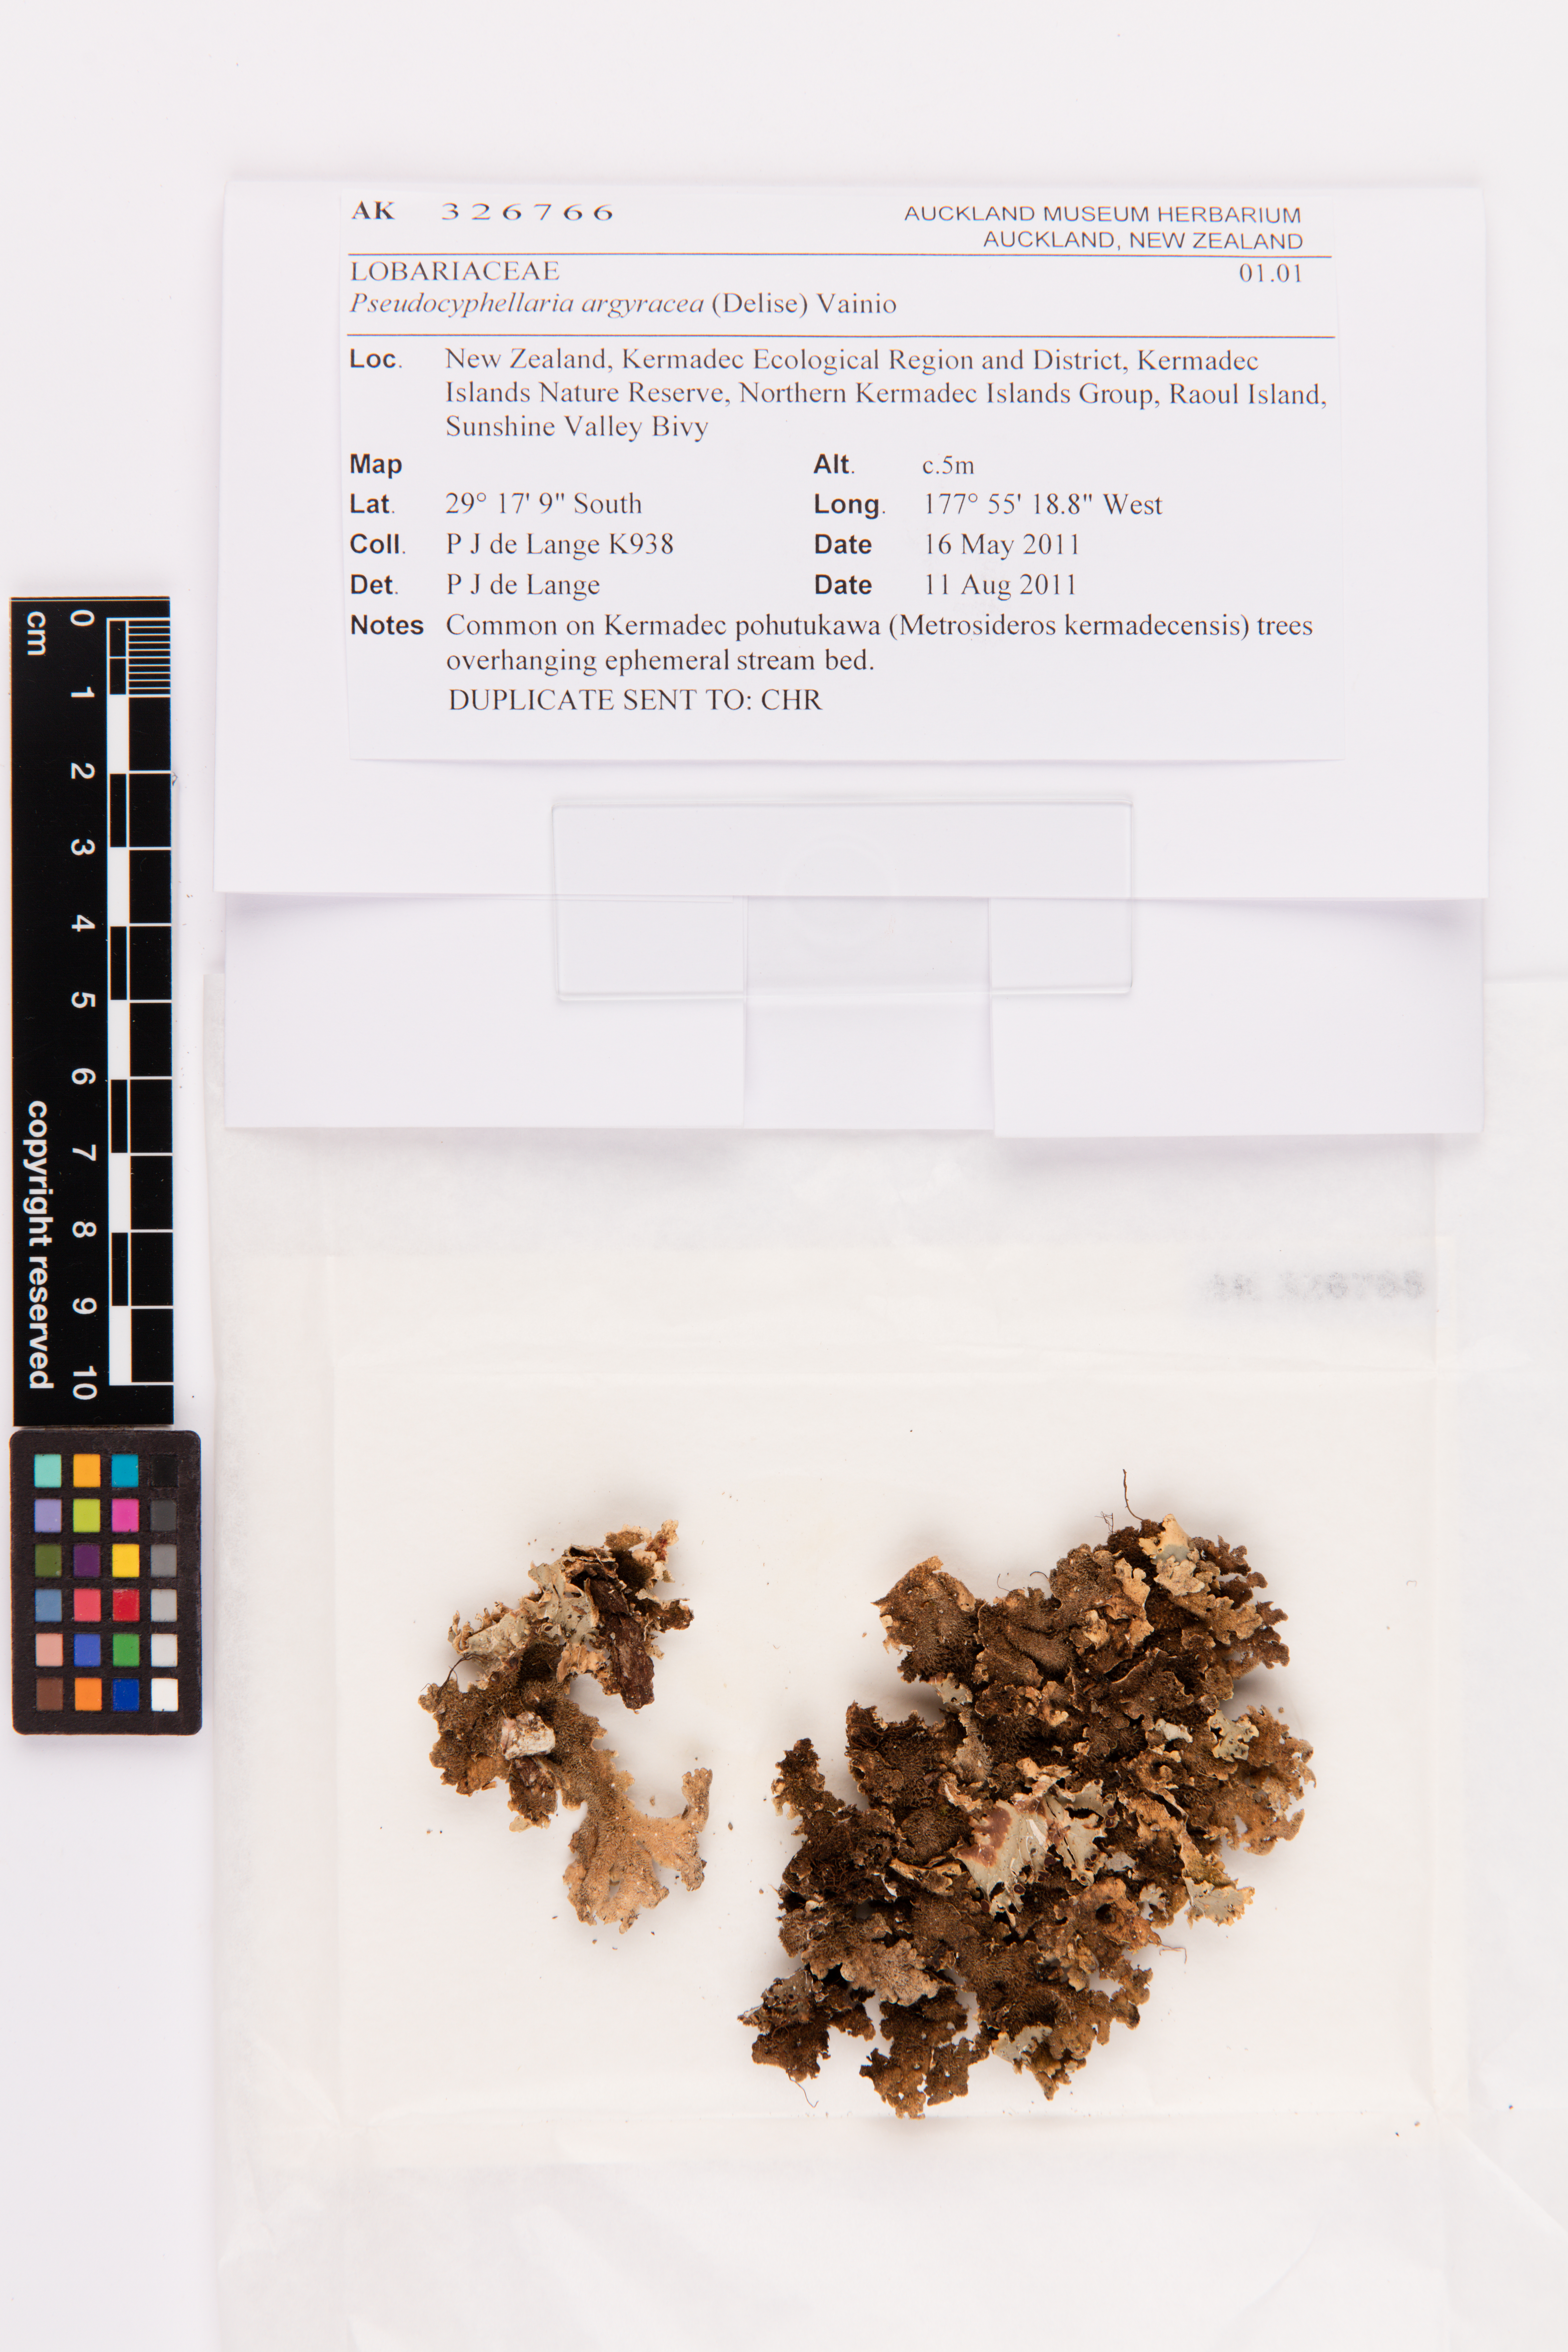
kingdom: Fungi
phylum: Ascomycota
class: Lecanoromycetes
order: Peltigerales
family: Lobariaceae
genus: Pseudocyphellaria
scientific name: Pseudocyphellaria argyracea
